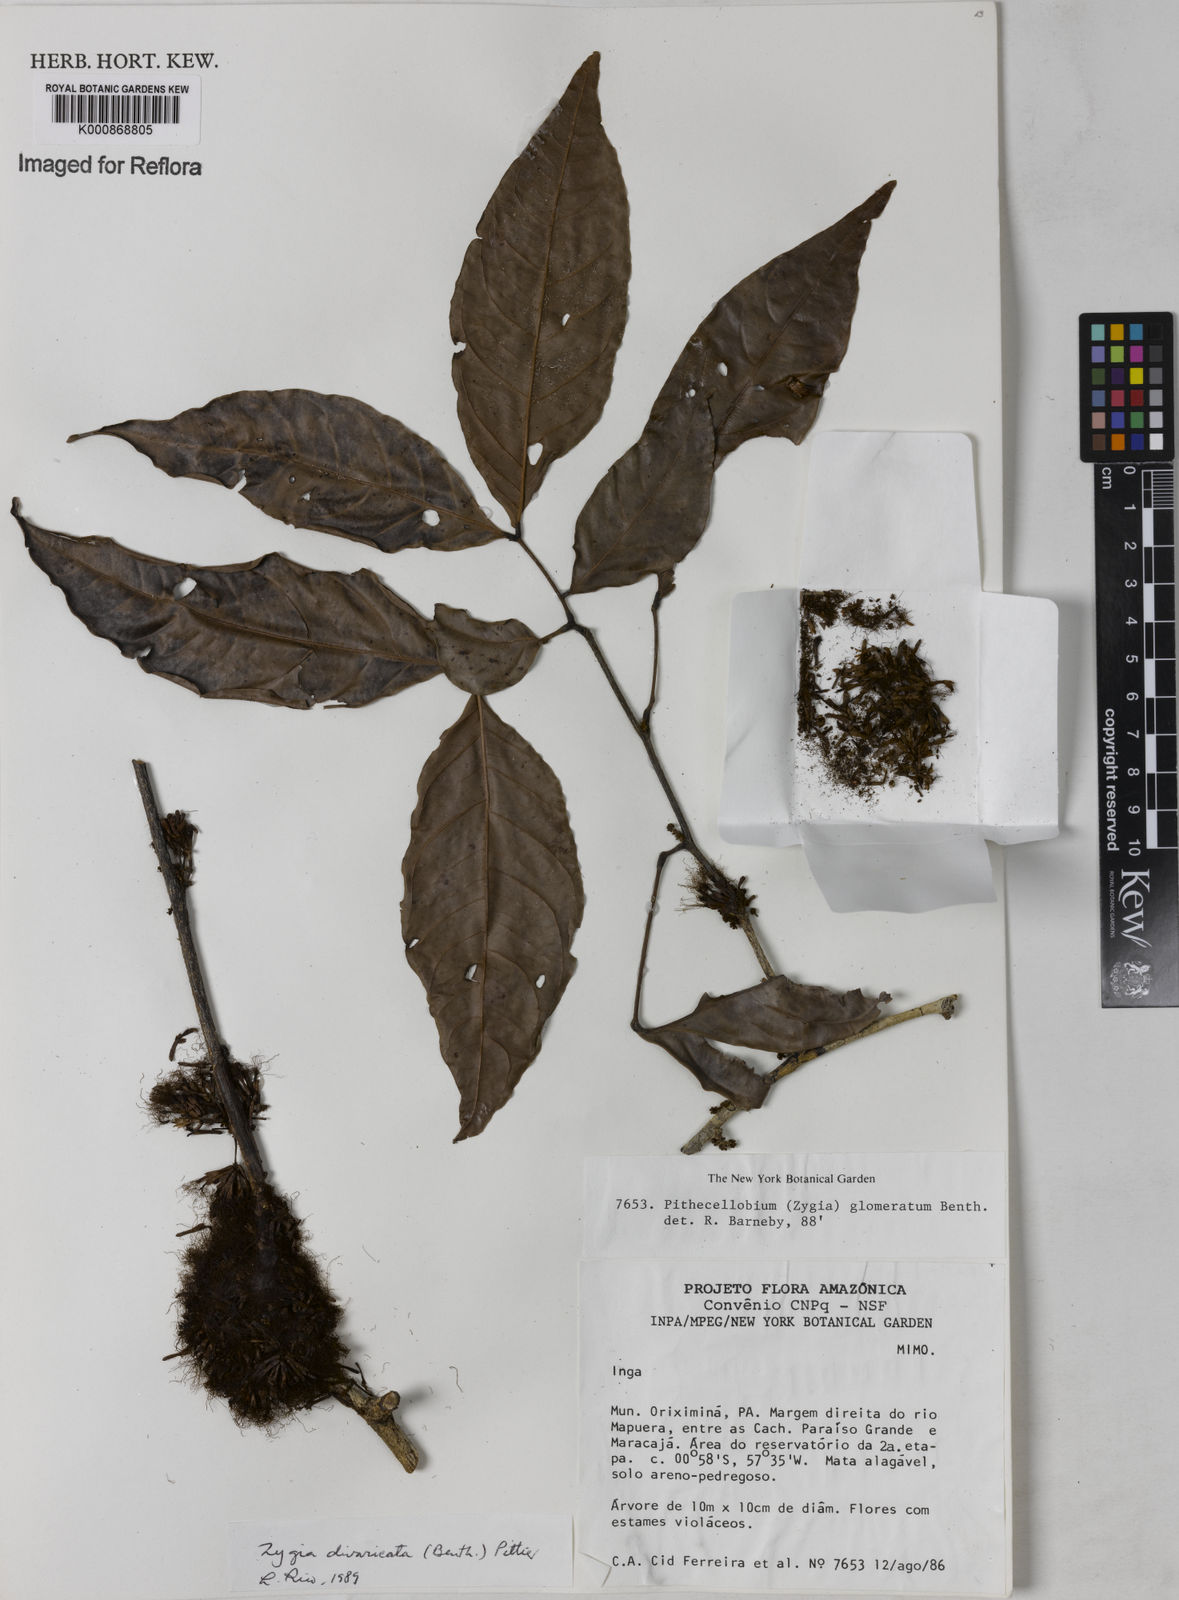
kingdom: Plantae
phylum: Tracheophyta
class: Magnoliopsida
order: Fabales
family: Fabaceae
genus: Zygia
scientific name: Zygia cataractae
